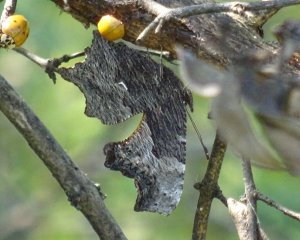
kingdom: Animalia
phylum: Arthropoda
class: Insecta
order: Lepidoptera
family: Nymphalidae
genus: Polygonia
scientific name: Polygonia progne
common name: Gray Comma
